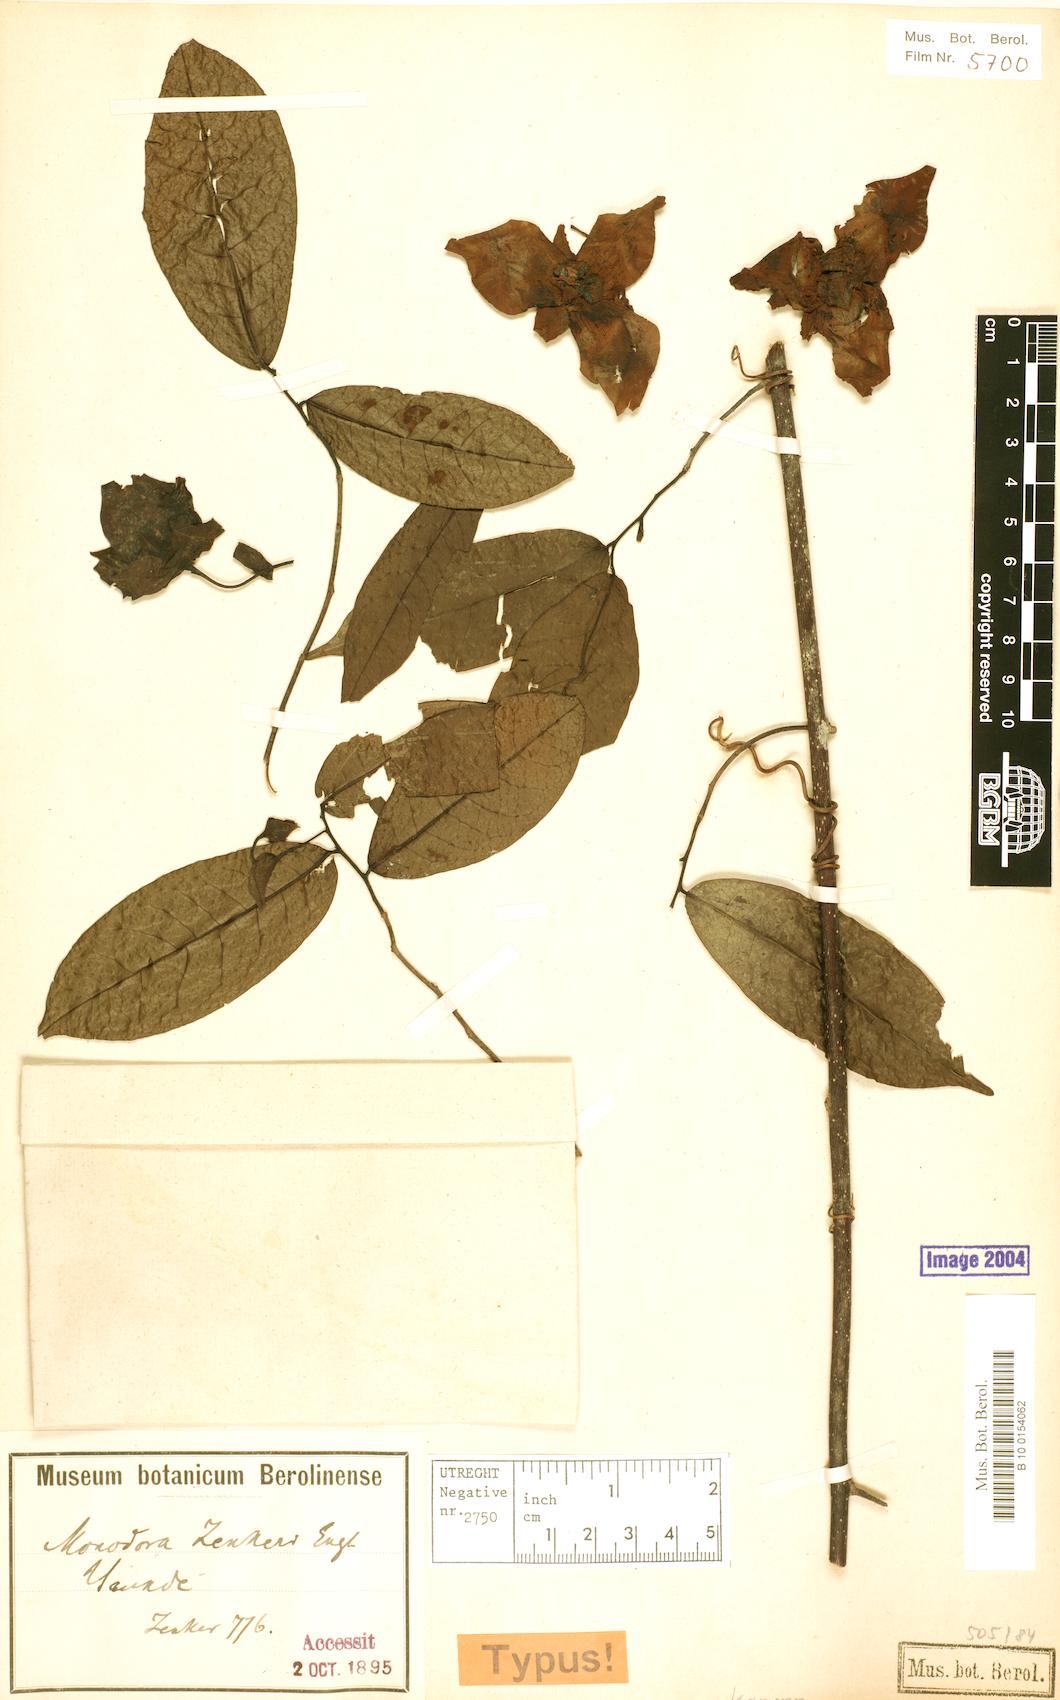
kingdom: Plantae
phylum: Tracheophyta
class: Magnoliopsida
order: Magnoliales
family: Annonaceae
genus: Monodora
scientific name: Monodora zenkeri
